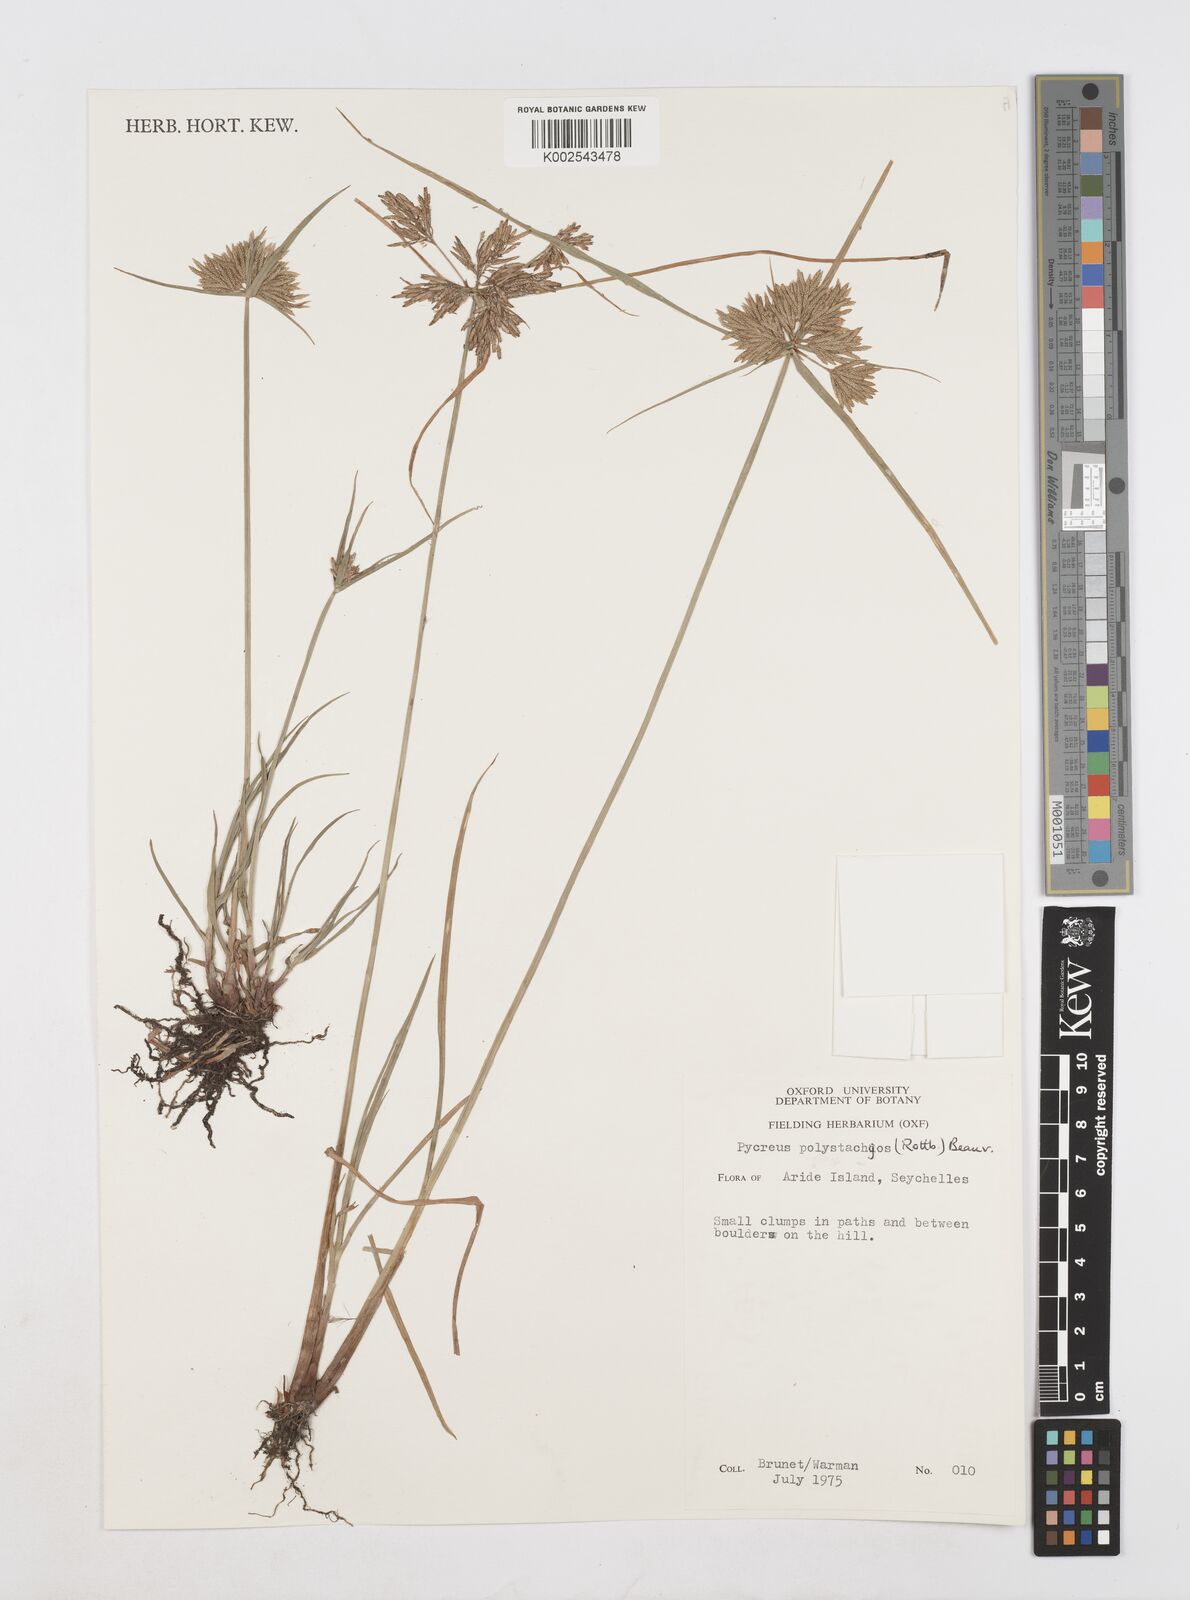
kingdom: Plantae
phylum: Tracheophyta
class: Liliopsida
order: Poales
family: Cyperaceae
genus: Cyperus
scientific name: Cyperus polystachyos
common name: Bunchy flat sedge
